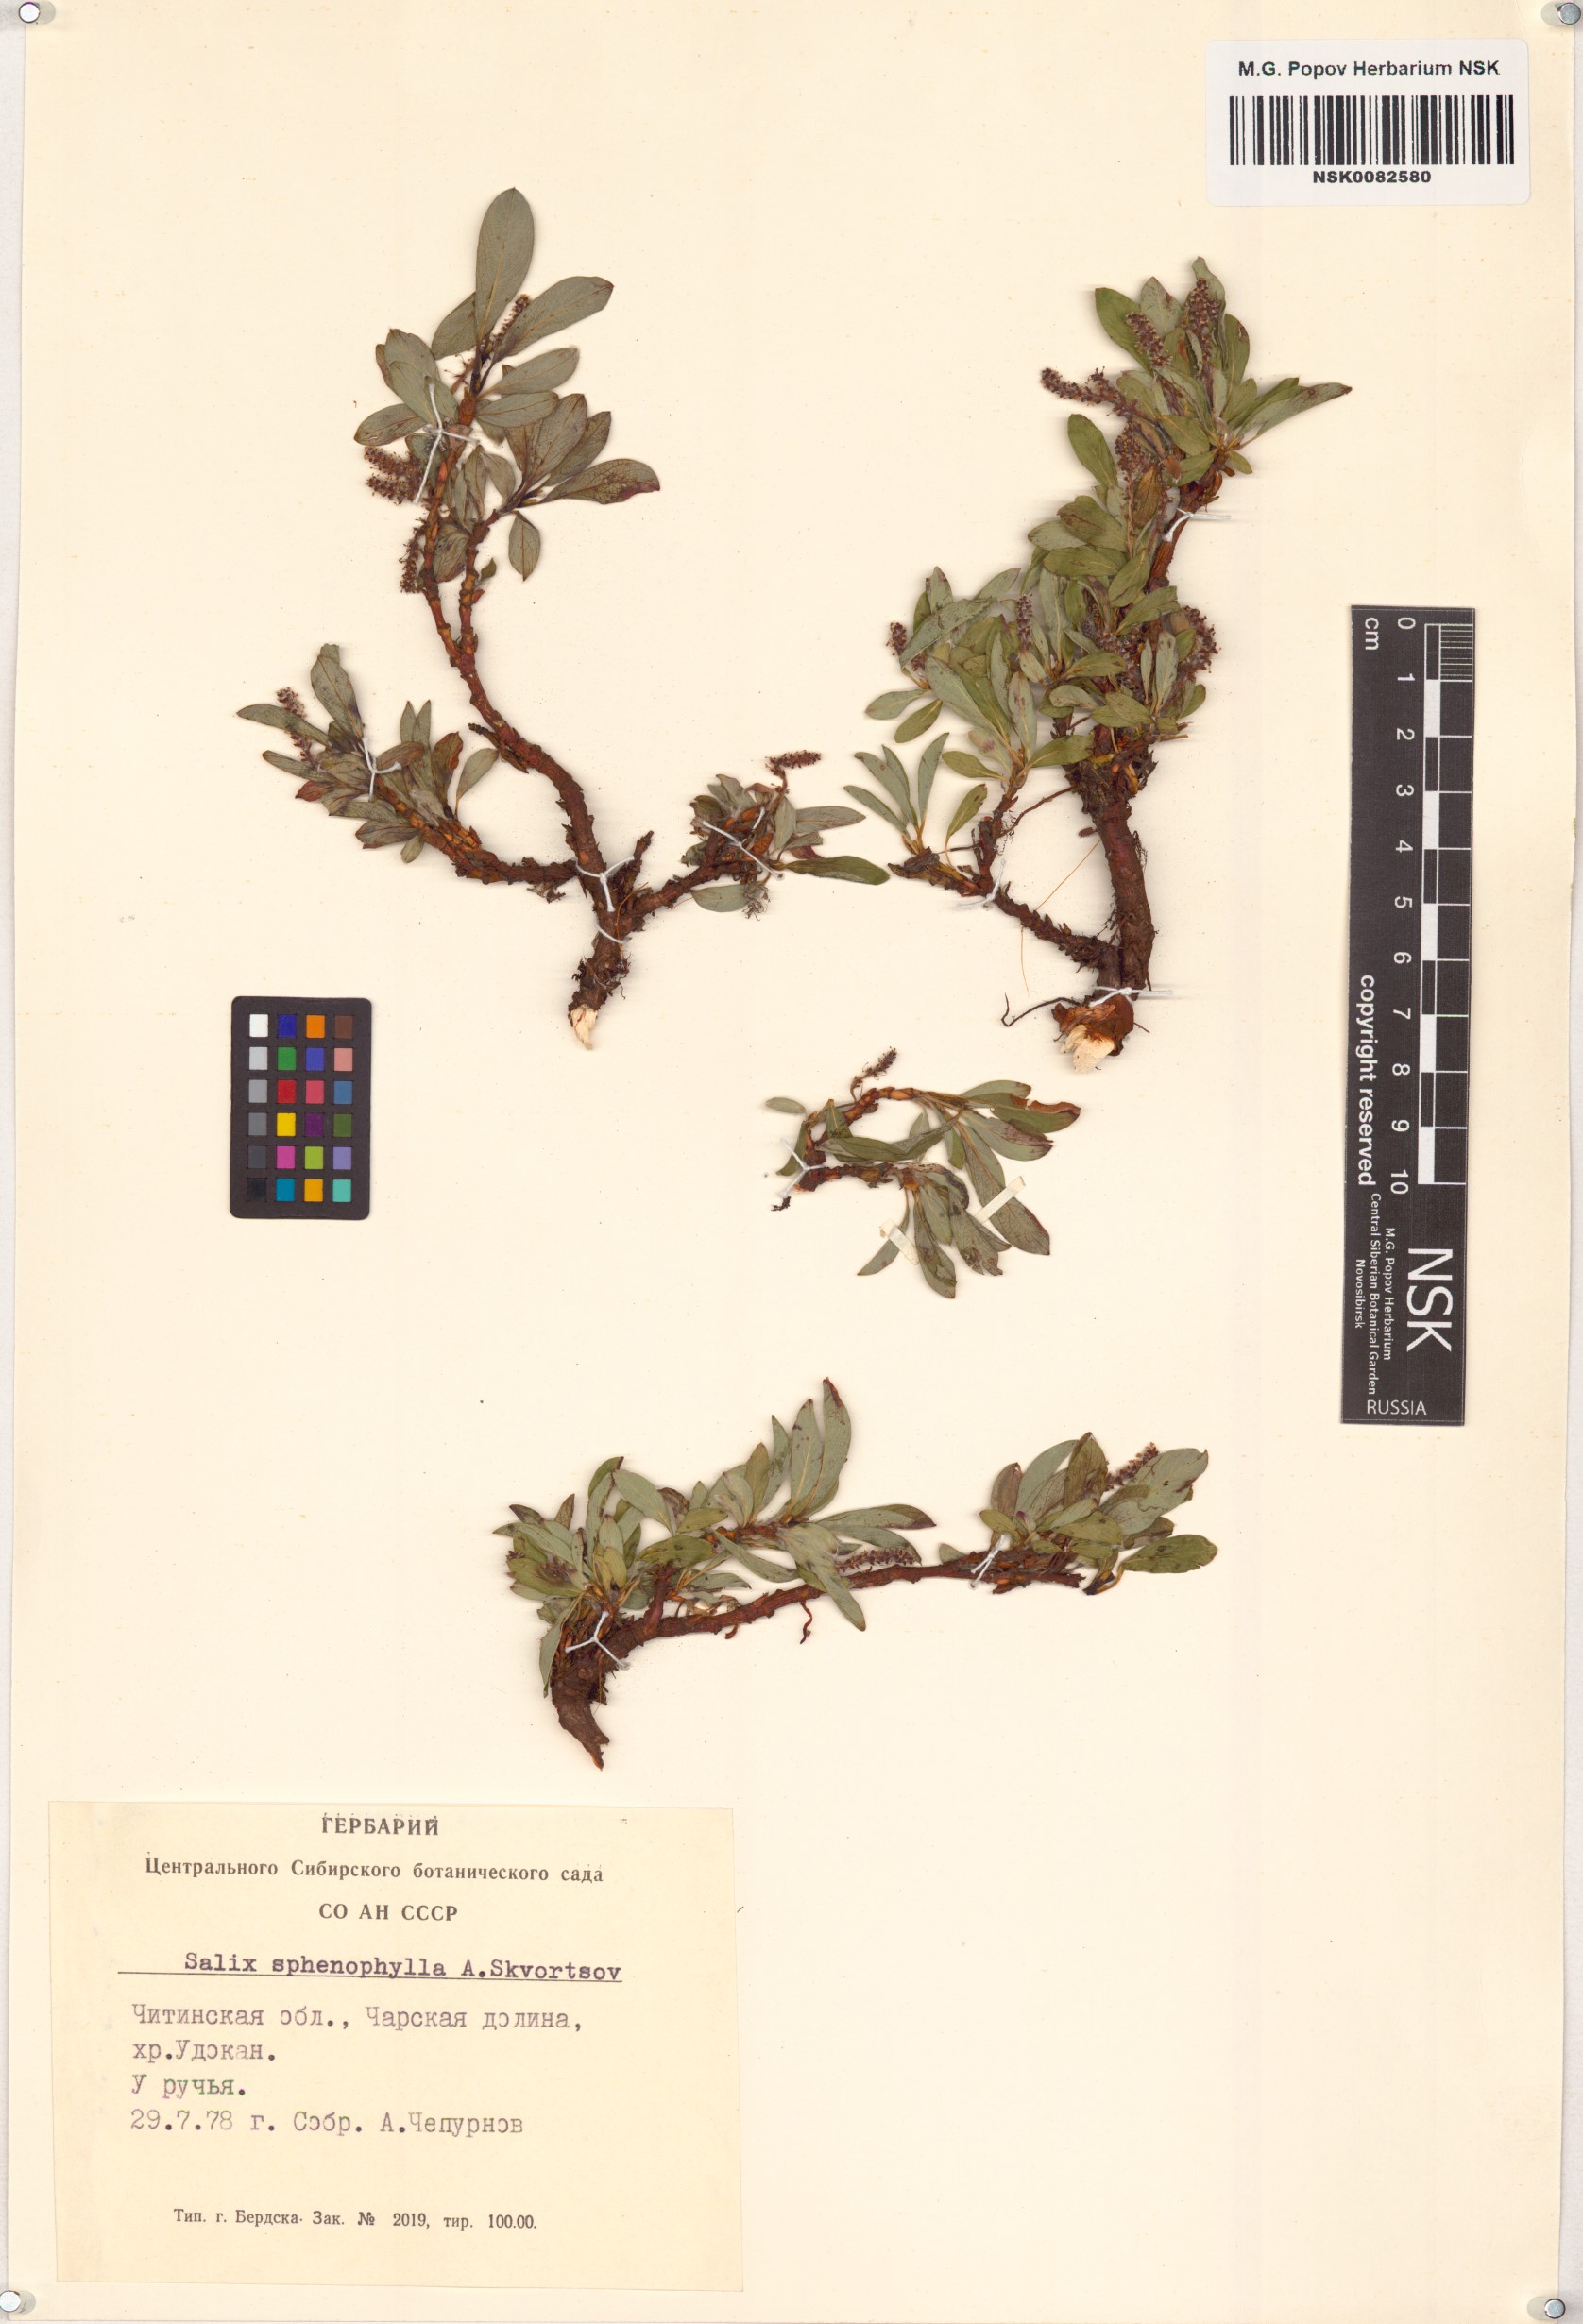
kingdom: Plantae
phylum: Tracheophyta
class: Magnoliopsida
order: Malpighiales
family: Salicaceae
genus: Salix
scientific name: Salix sphenophylla
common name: Wedge-leaved willow
